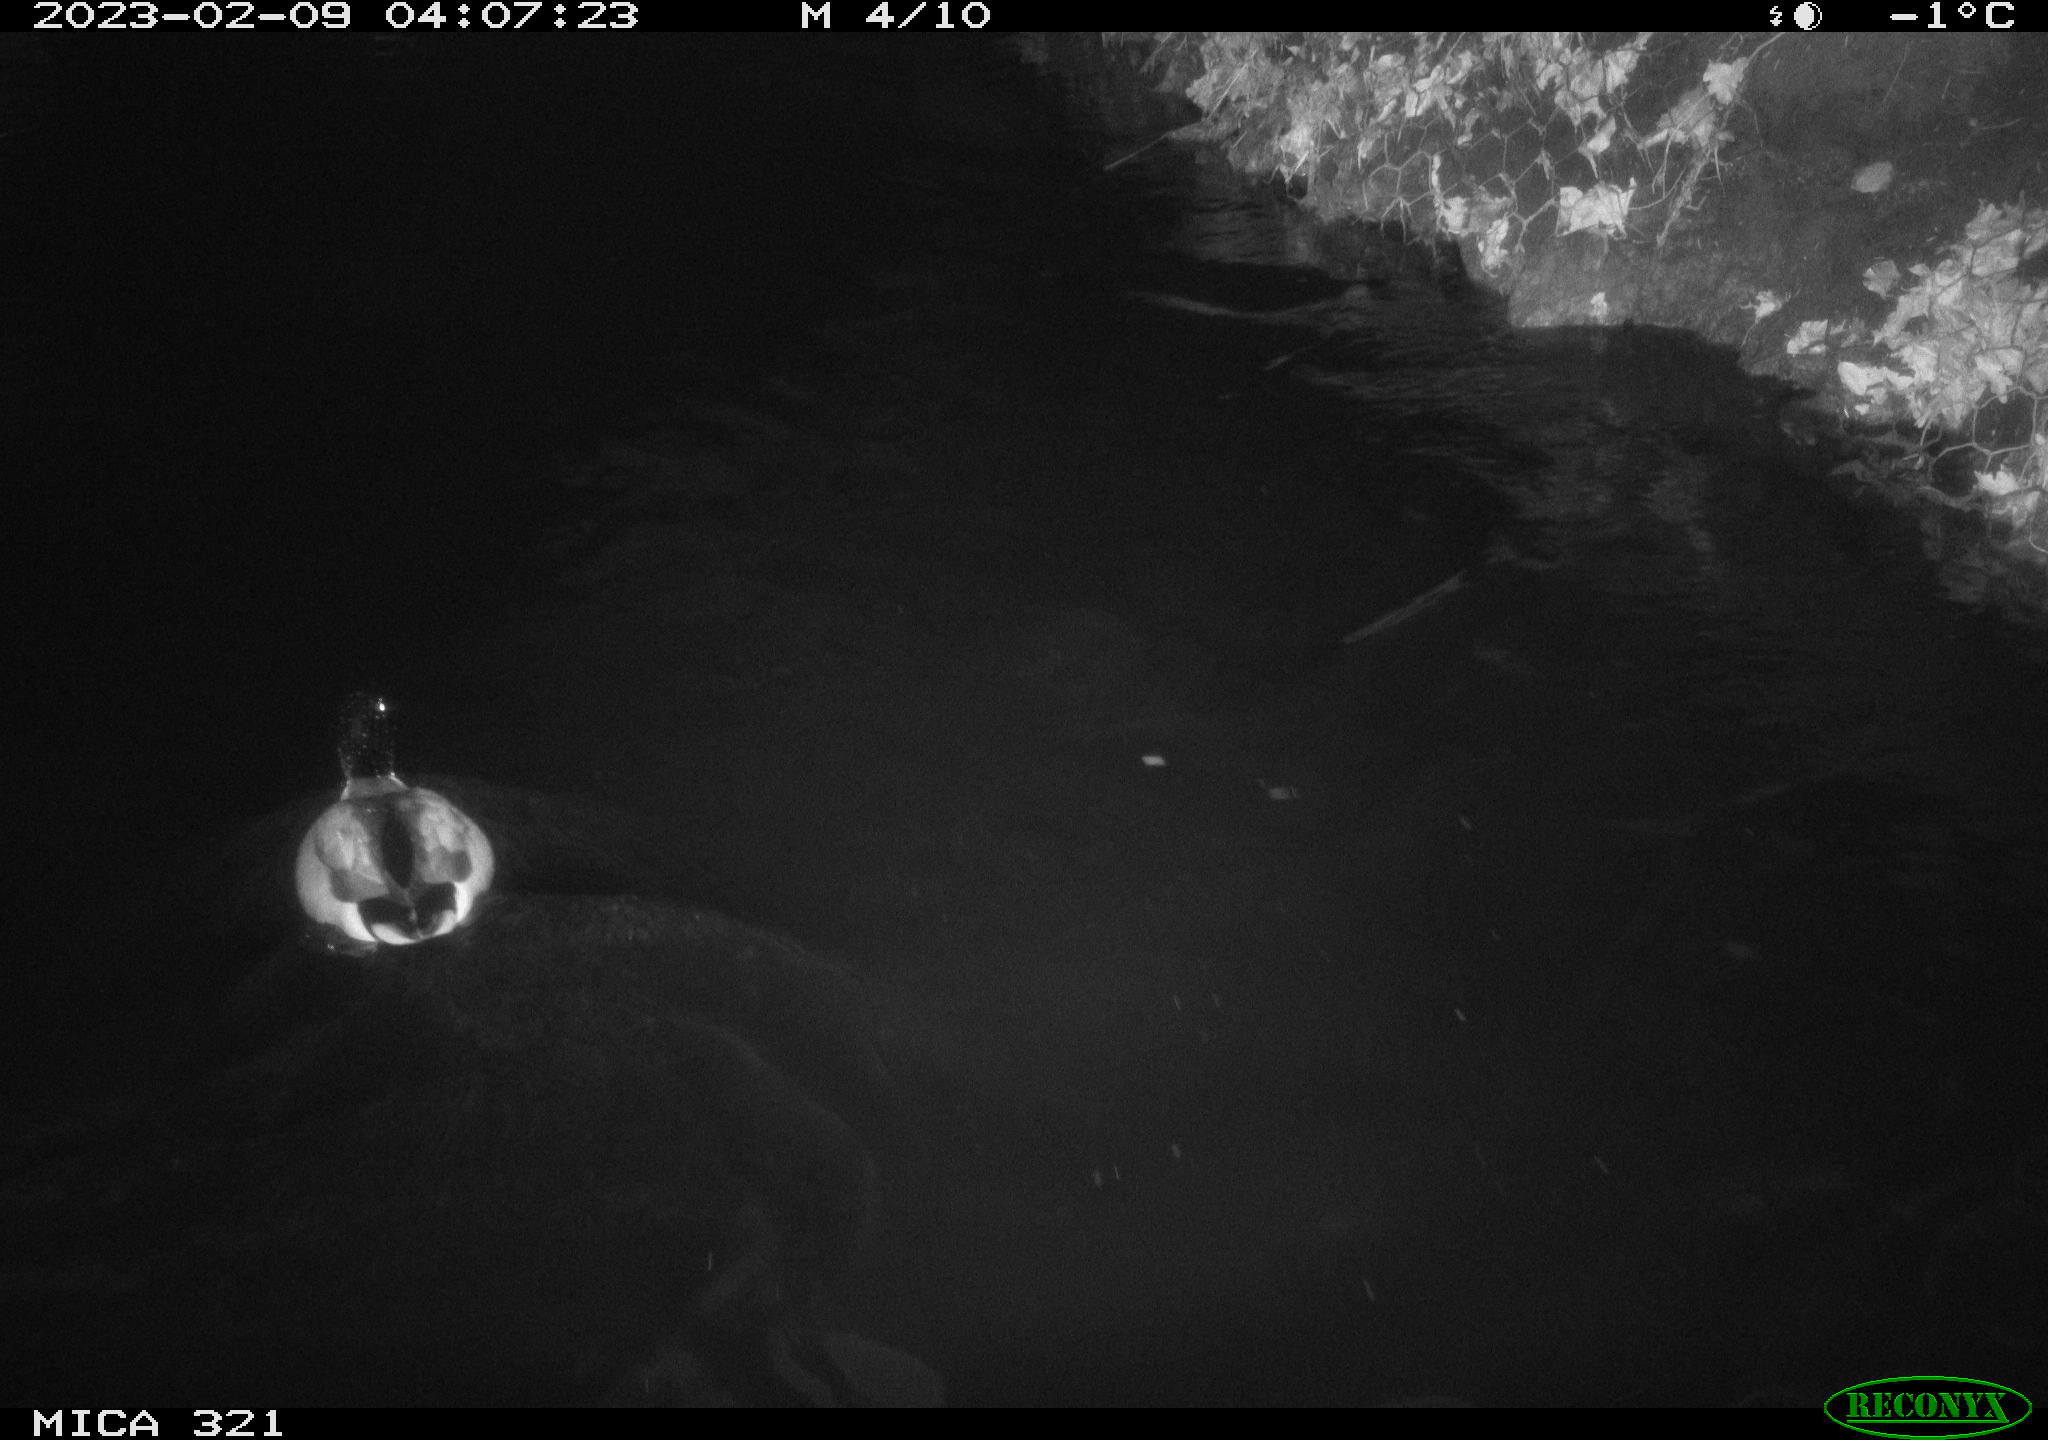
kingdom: Animalia
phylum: Chordata
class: Aves
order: Anseriformes
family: Anatidae
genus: Anas
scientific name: Anas
